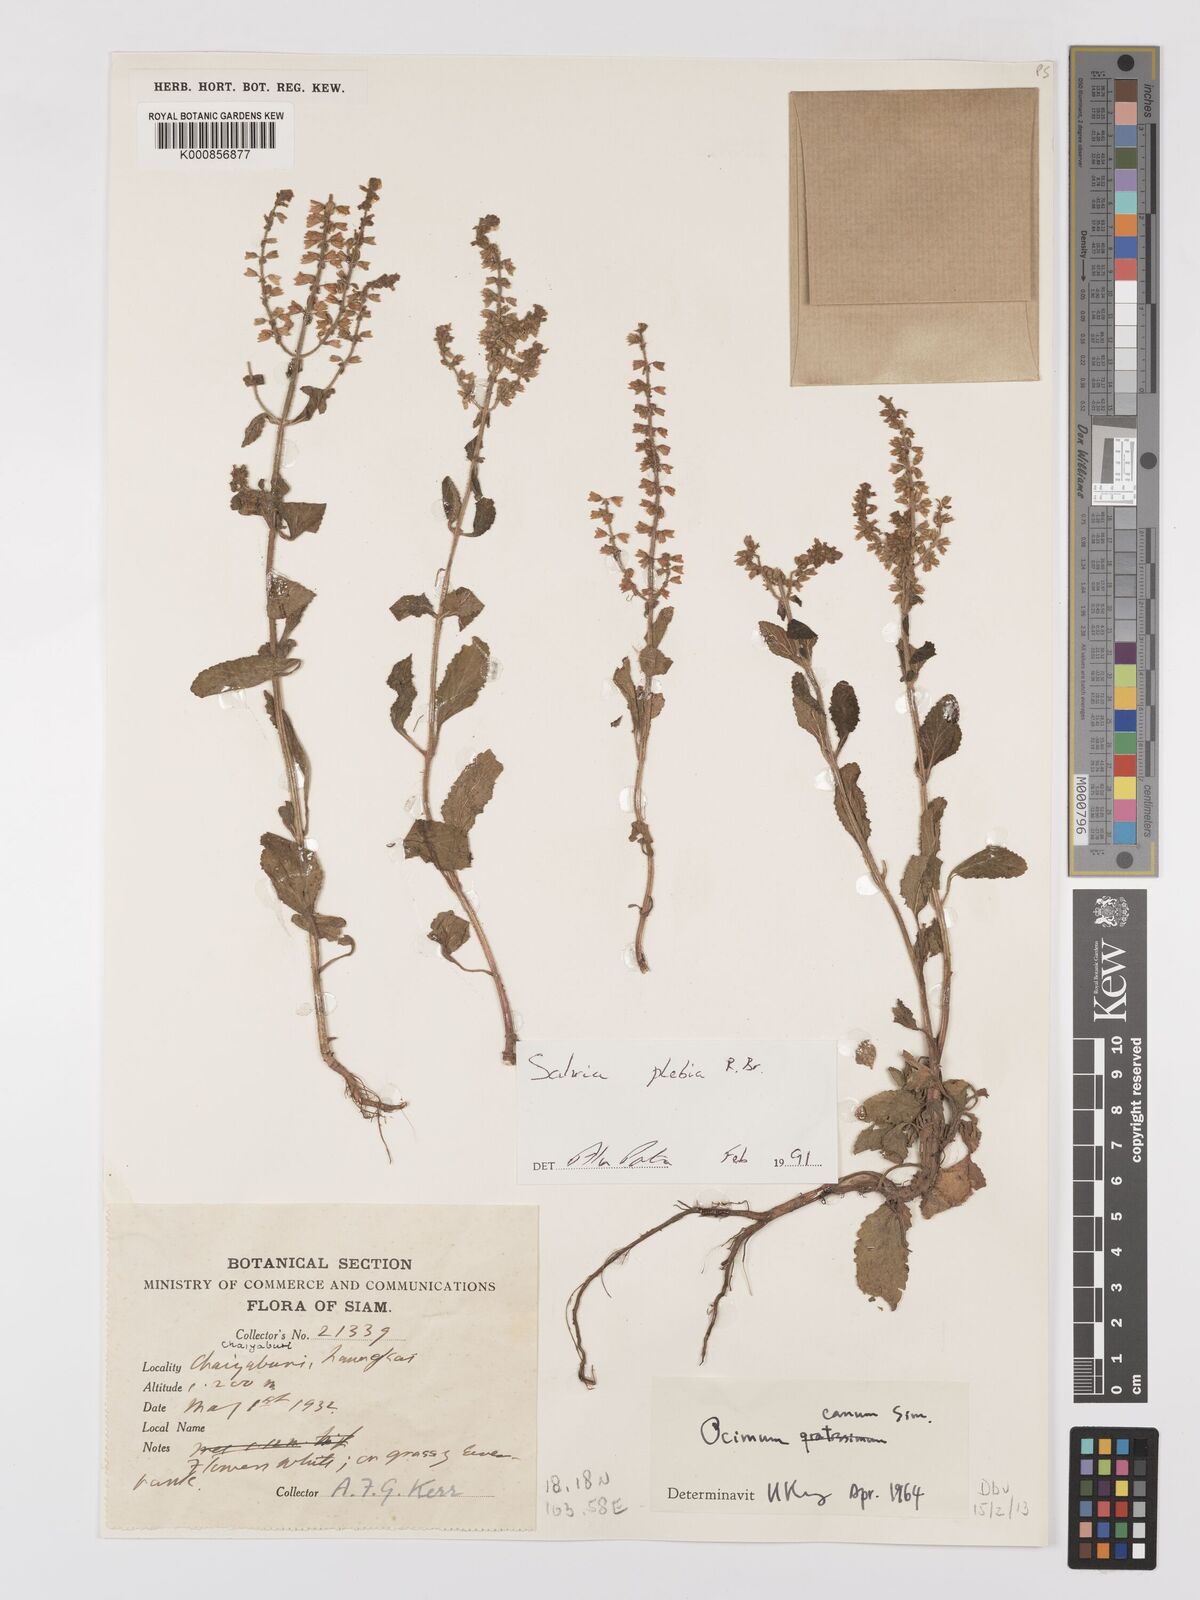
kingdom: Plantae
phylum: Tracheophyta
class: Magnoliopsida
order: Lamiales
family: Lamiaceae
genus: Salvia
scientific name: Salvia plebeia
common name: Australian sage
